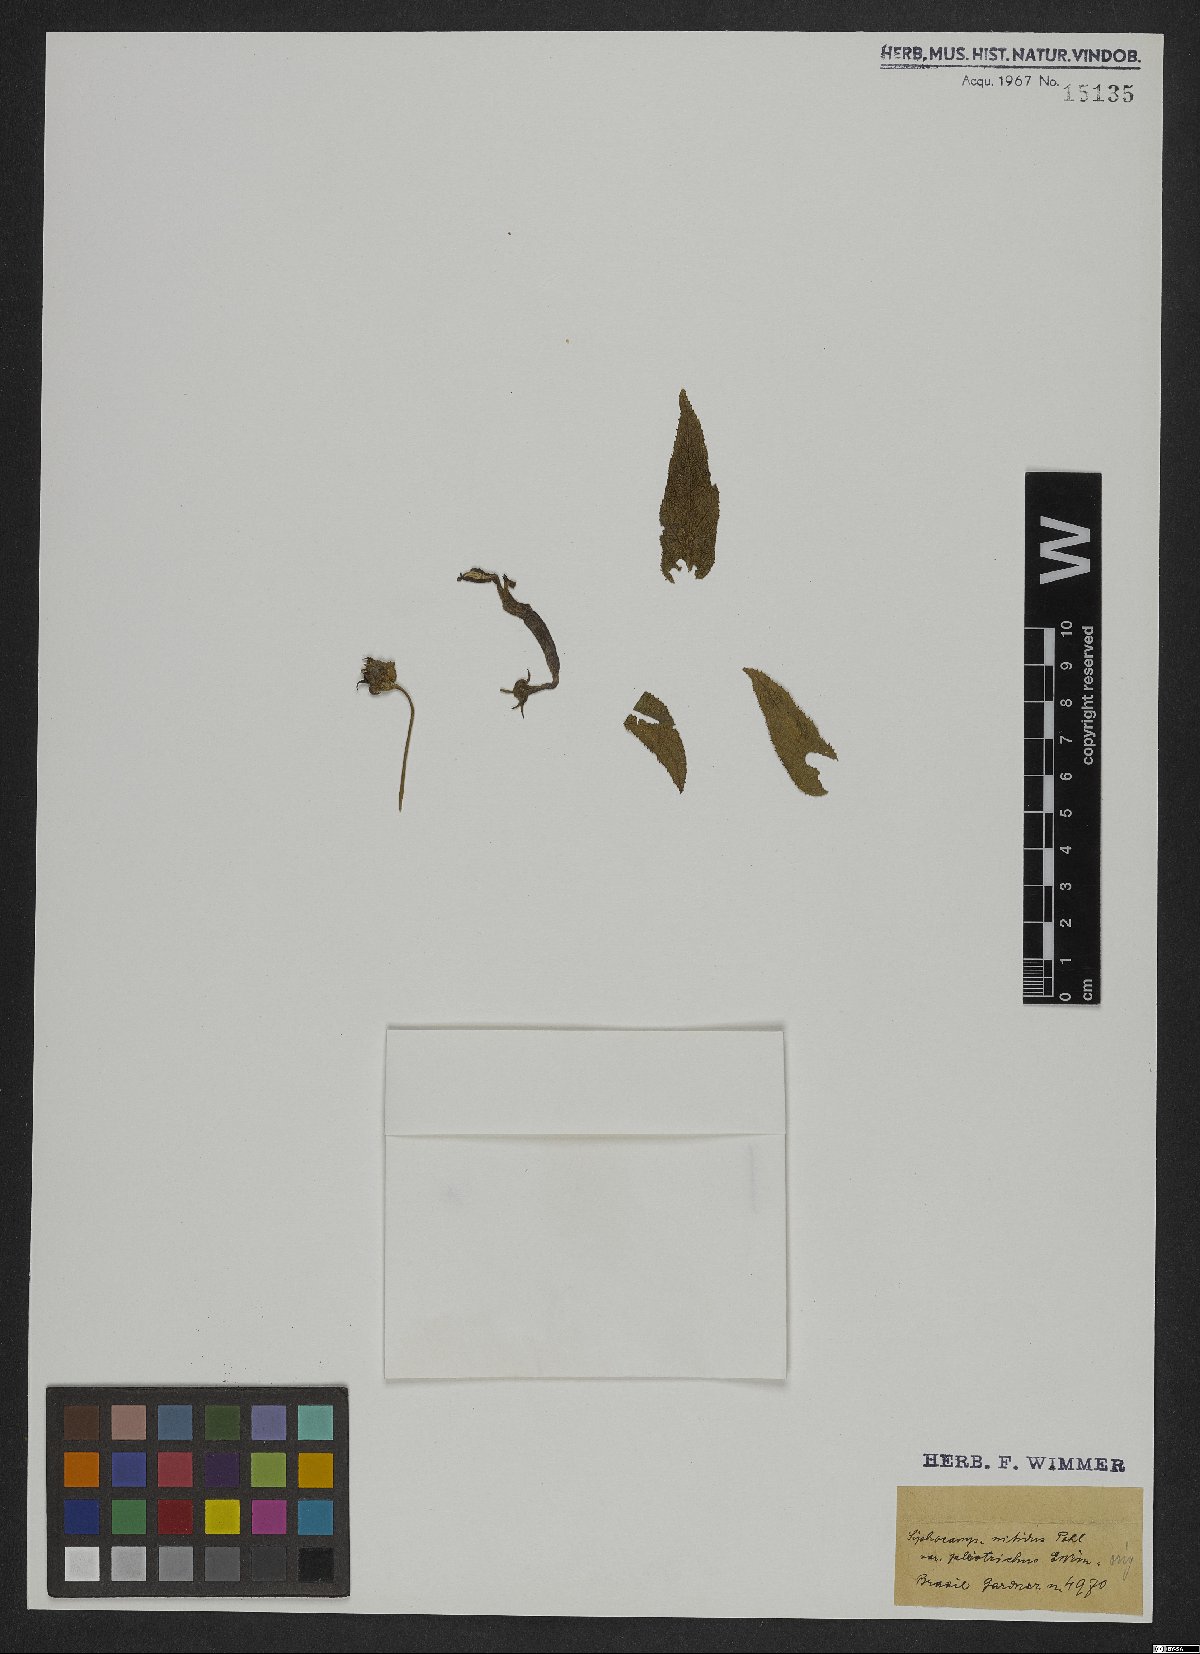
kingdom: Plantae
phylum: Tracheophyta
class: Magnoliopsida
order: Asterales
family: Campanulaceae
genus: Siphocampylus
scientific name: Siphocampylus nitidus
